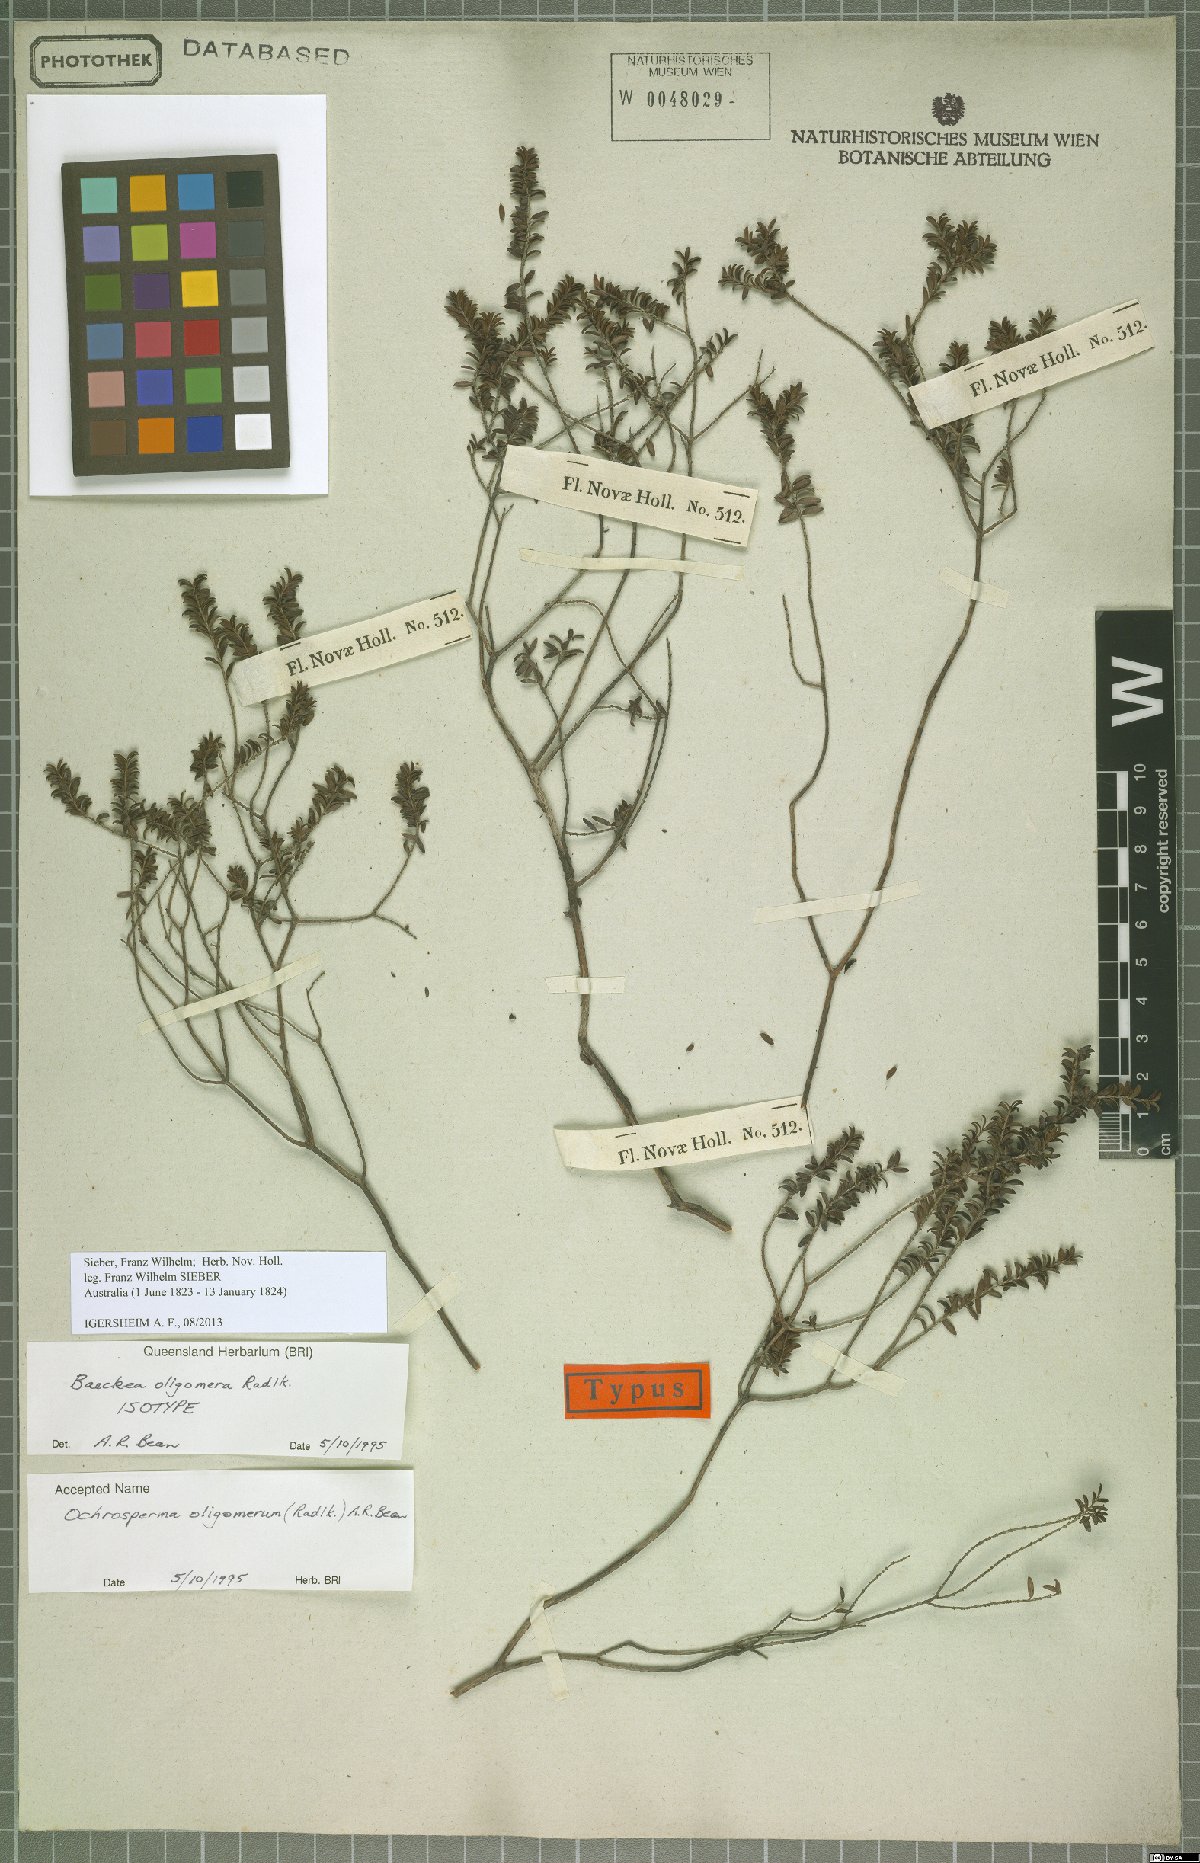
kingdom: Plantae
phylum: Tracheophyta
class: Magnoliopsida
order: Myrtales
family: Myrtaceae
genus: Ochrosperma
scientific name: Ochrosperma oligomerum
